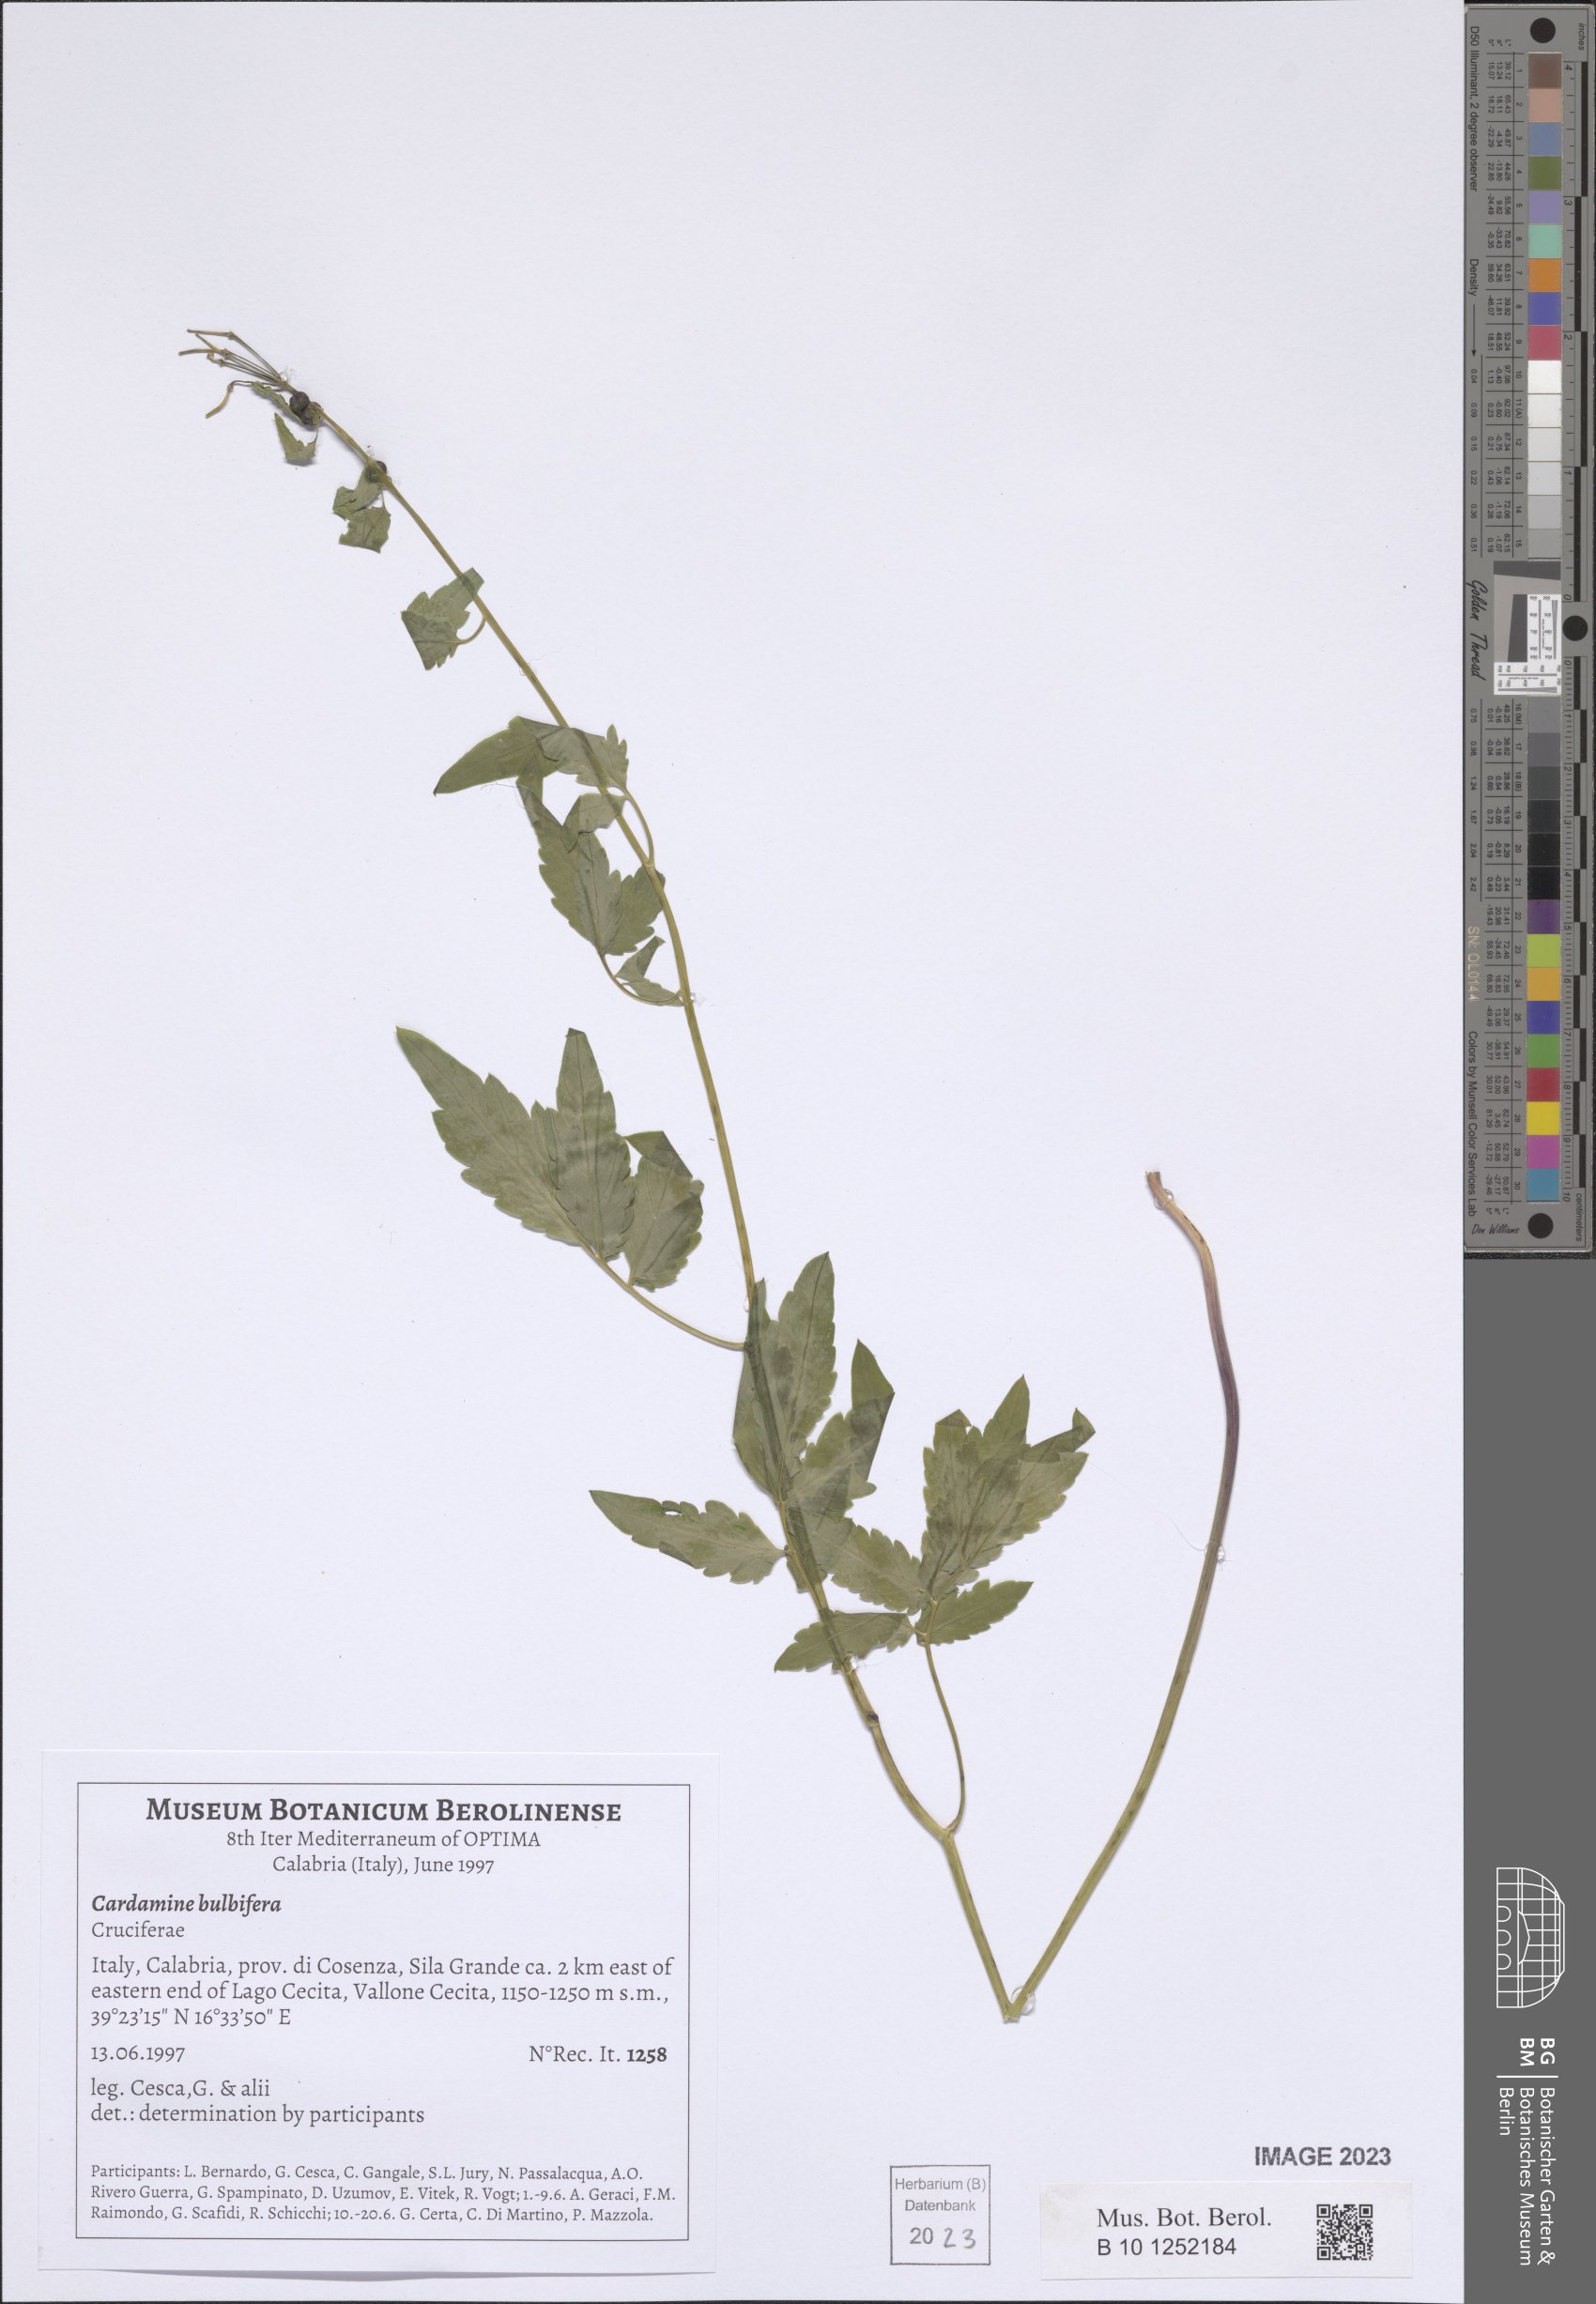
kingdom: Plantae
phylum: Tracheophyta
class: Magnoliopsida
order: Brassicales
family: Brassicaceae
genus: Cardamine
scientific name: Cardamine bulbifera
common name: Coralroot bittercress
